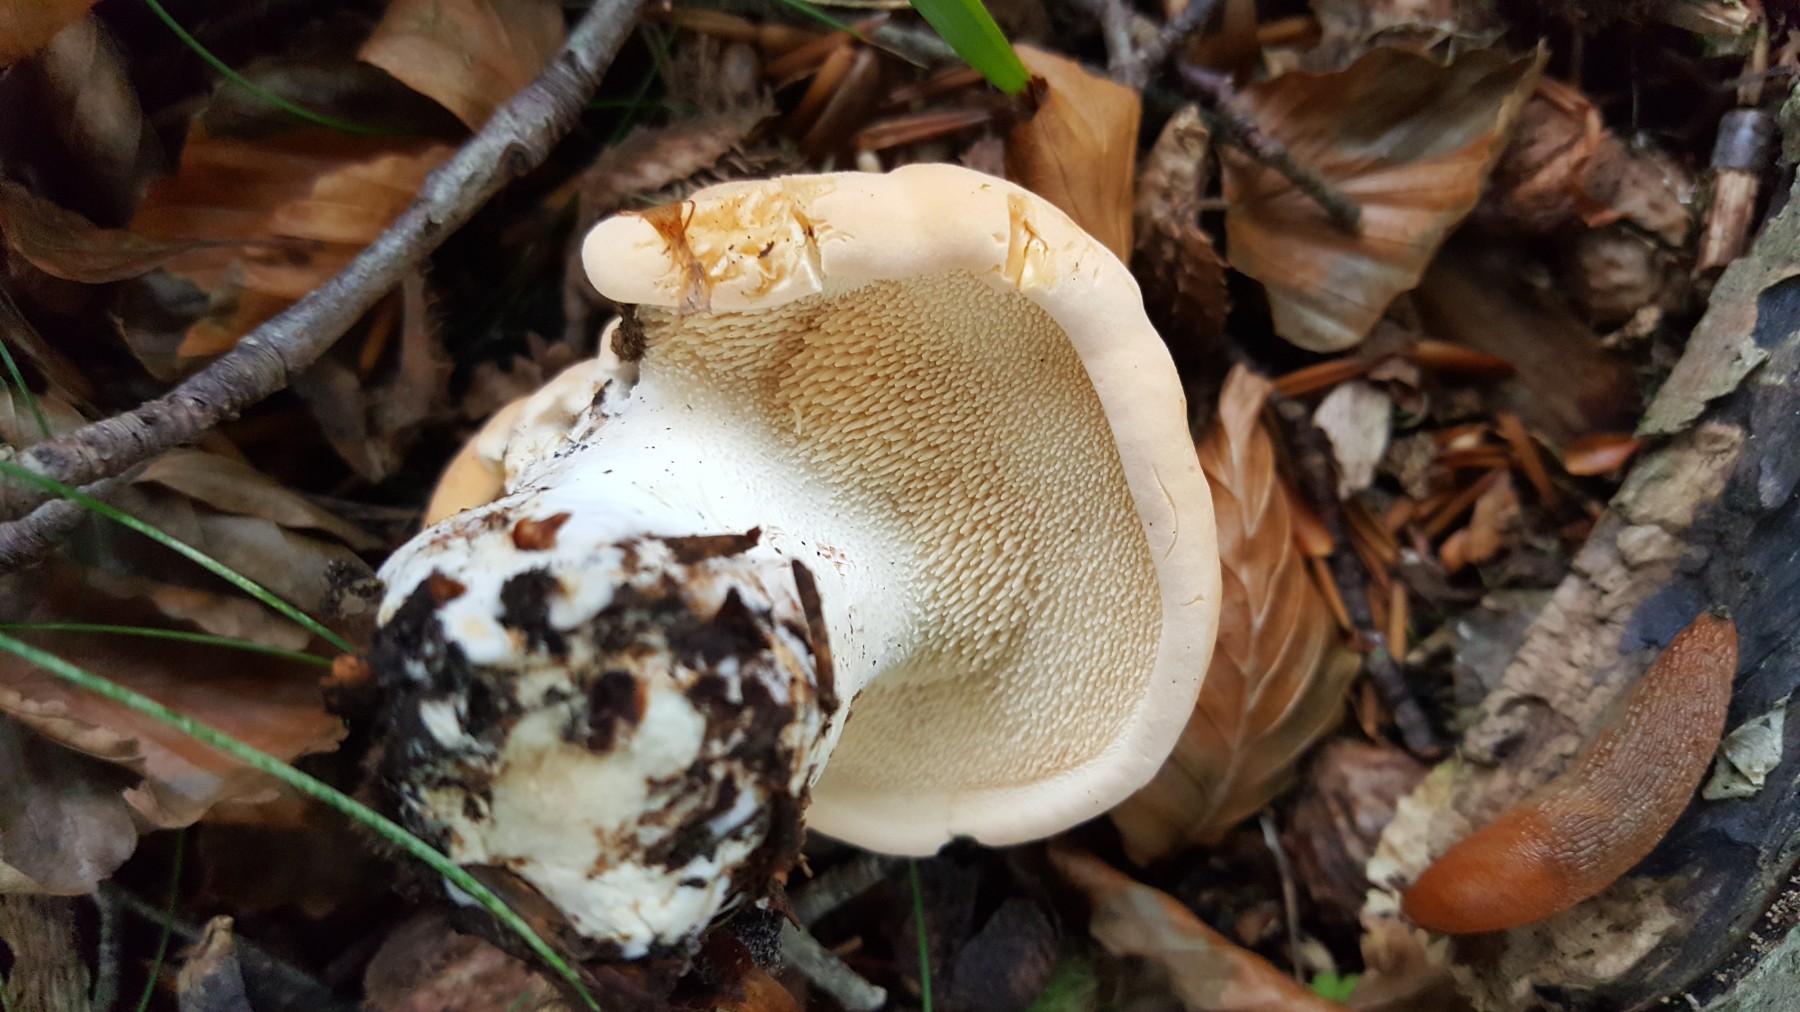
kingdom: Fungi
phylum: Basidiomycota
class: Agaricomycetes
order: Cantharellales
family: Hydnaceae
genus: Hydnum
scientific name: Hydnum
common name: pigsvamp
